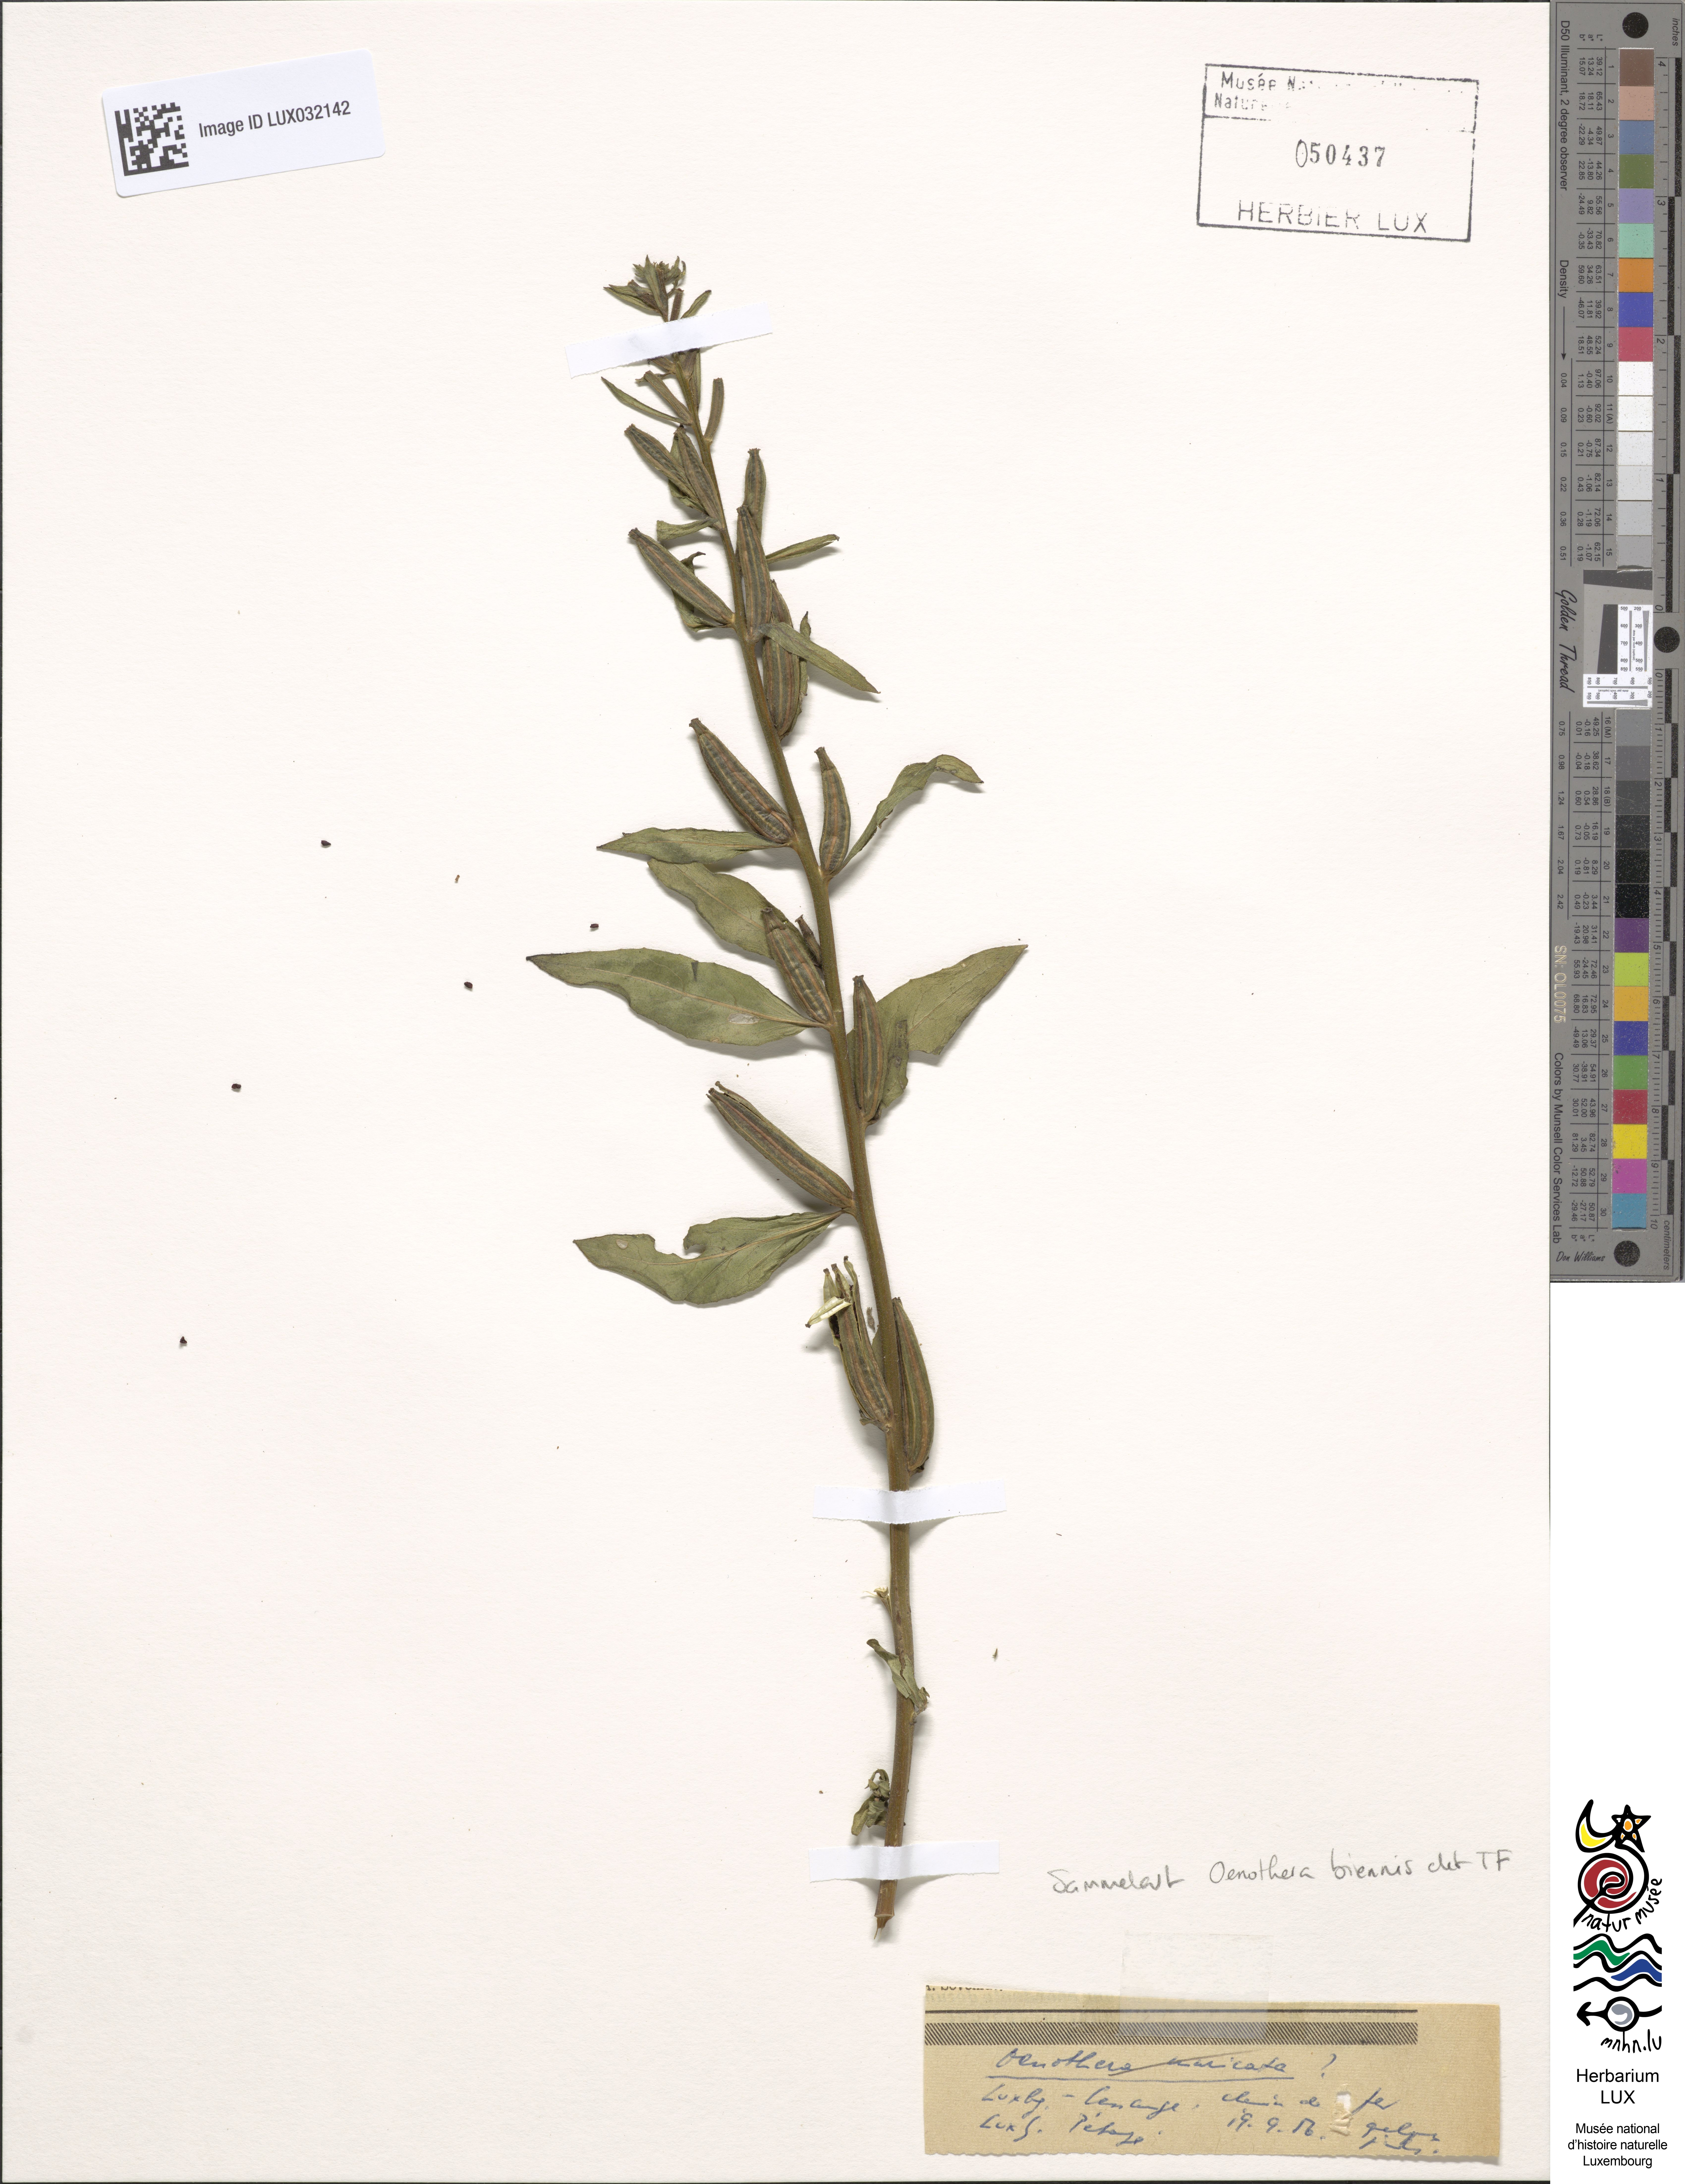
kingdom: Plantae
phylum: Tracheophyta
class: Magnoliopsida
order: Myrtales
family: Onagraceae
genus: Oenothera
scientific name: Oenothera biennis
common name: Common evening-primrose
